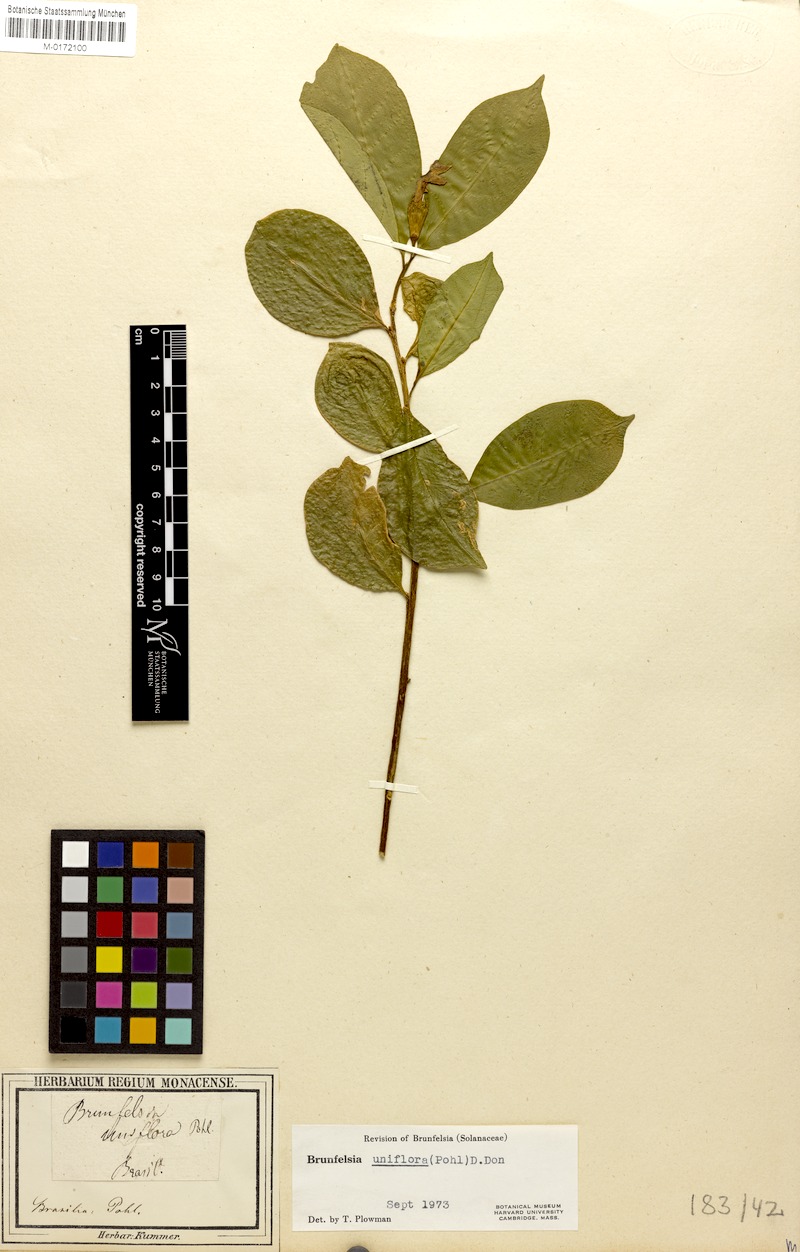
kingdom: Plantae
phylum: Tracheophyta
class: Magnoliopsida
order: Solanales
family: Solanaceae
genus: Brunfelsia
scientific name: Brunfelsia uniflora
